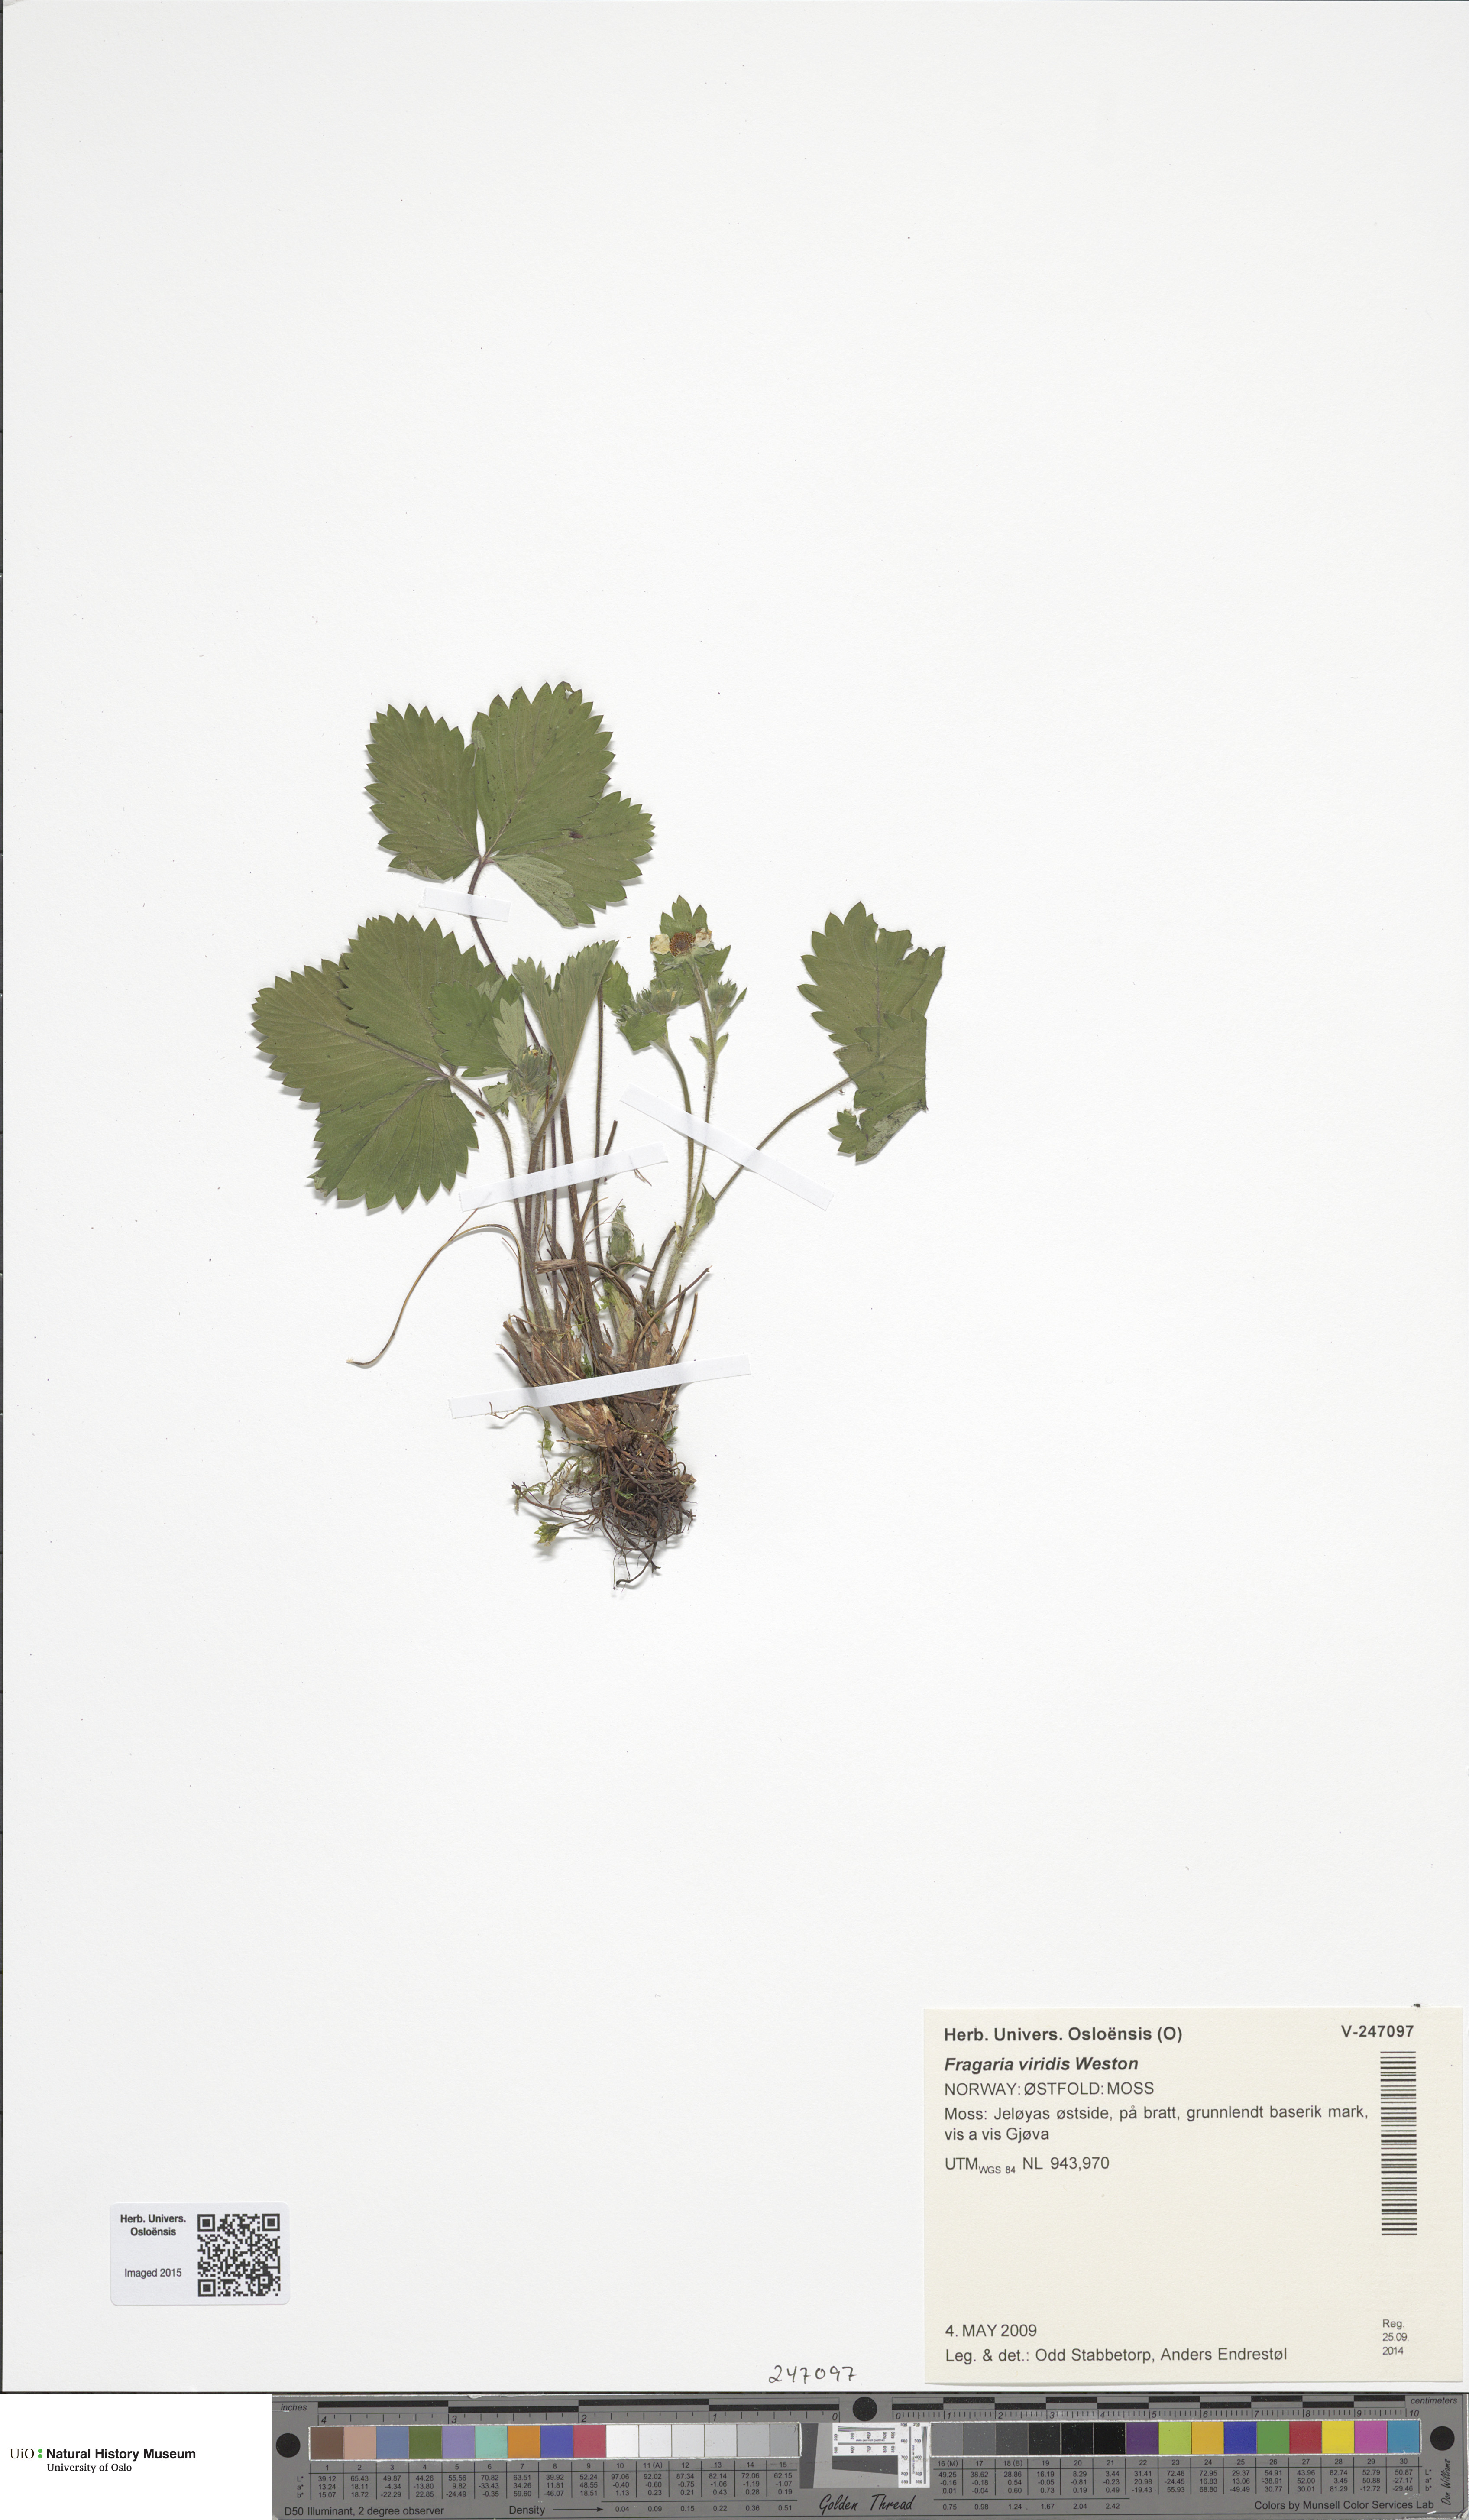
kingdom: Plantae
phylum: Tracheophyta
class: Magnoliopsida
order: Rosales
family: Rosaceae
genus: Fragaria
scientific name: Fragaria viridis
